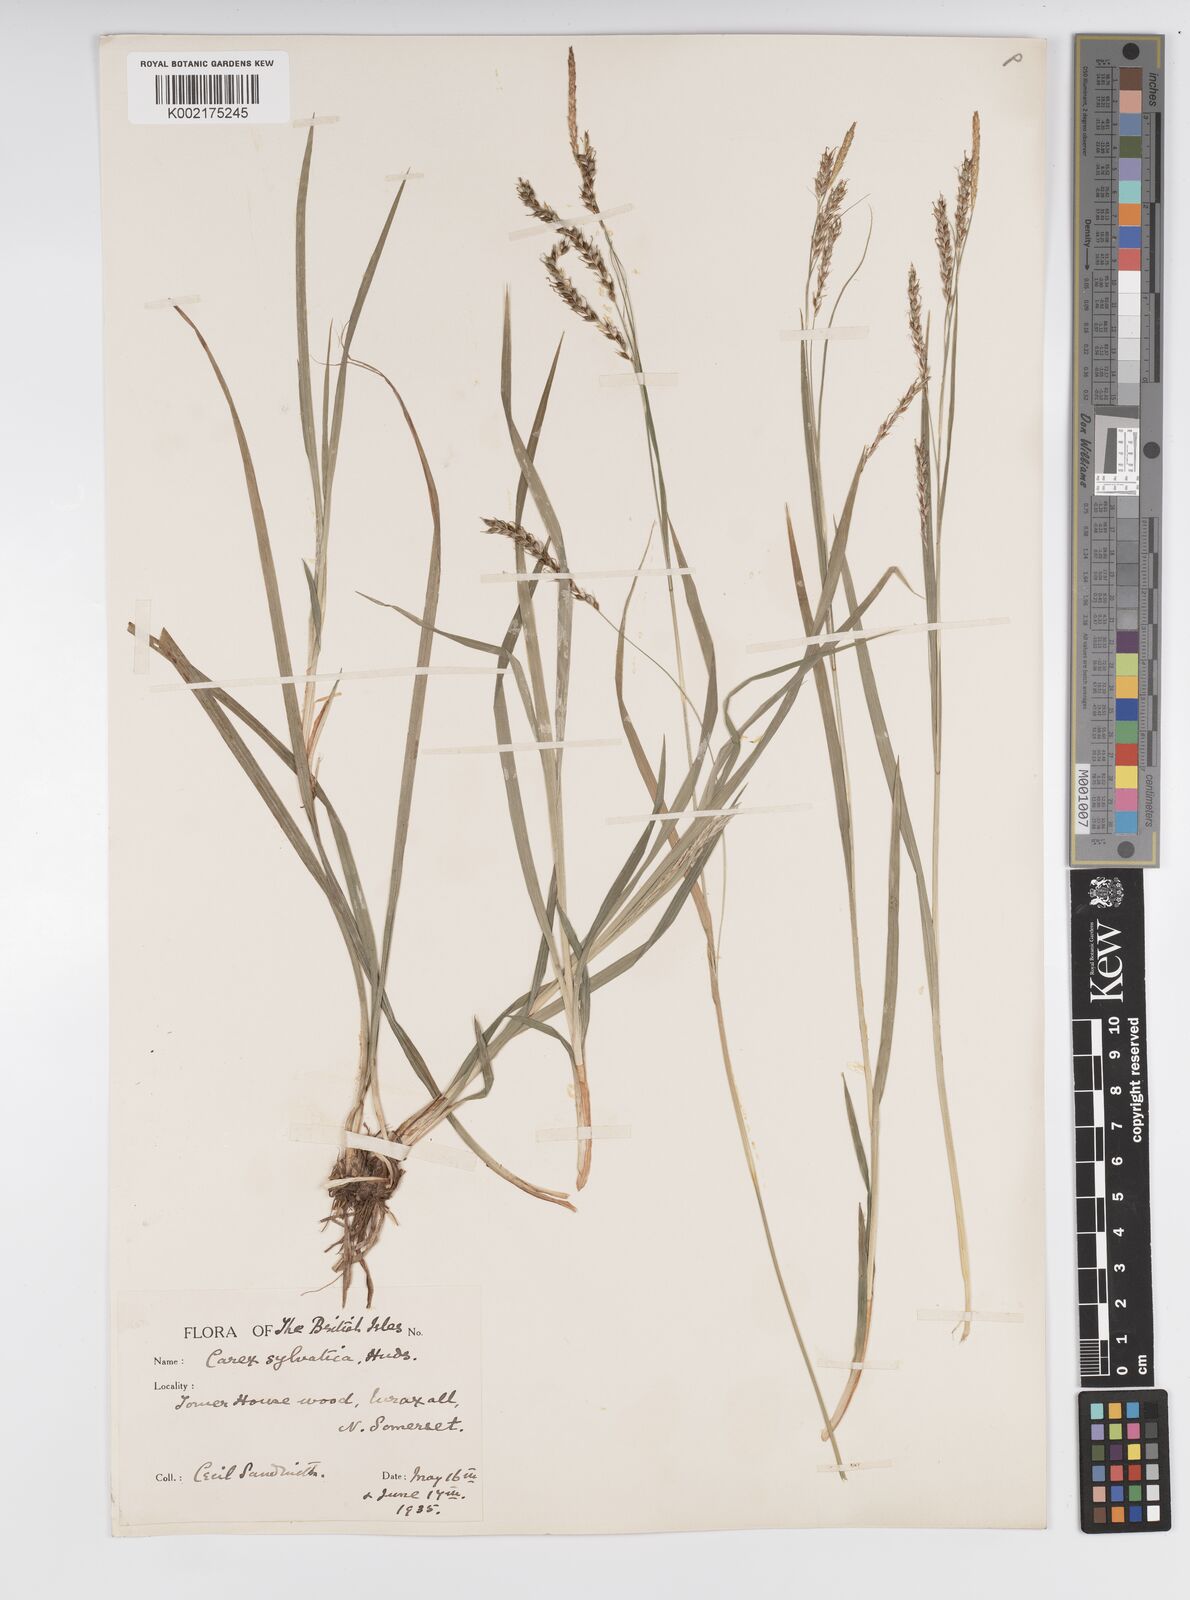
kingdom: Plantae
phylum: Tracheophyta
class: Liliopsida
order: Poales
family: Cyperaceae
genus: Carex
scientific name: Carex sylvatica
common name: Wood-sedge
